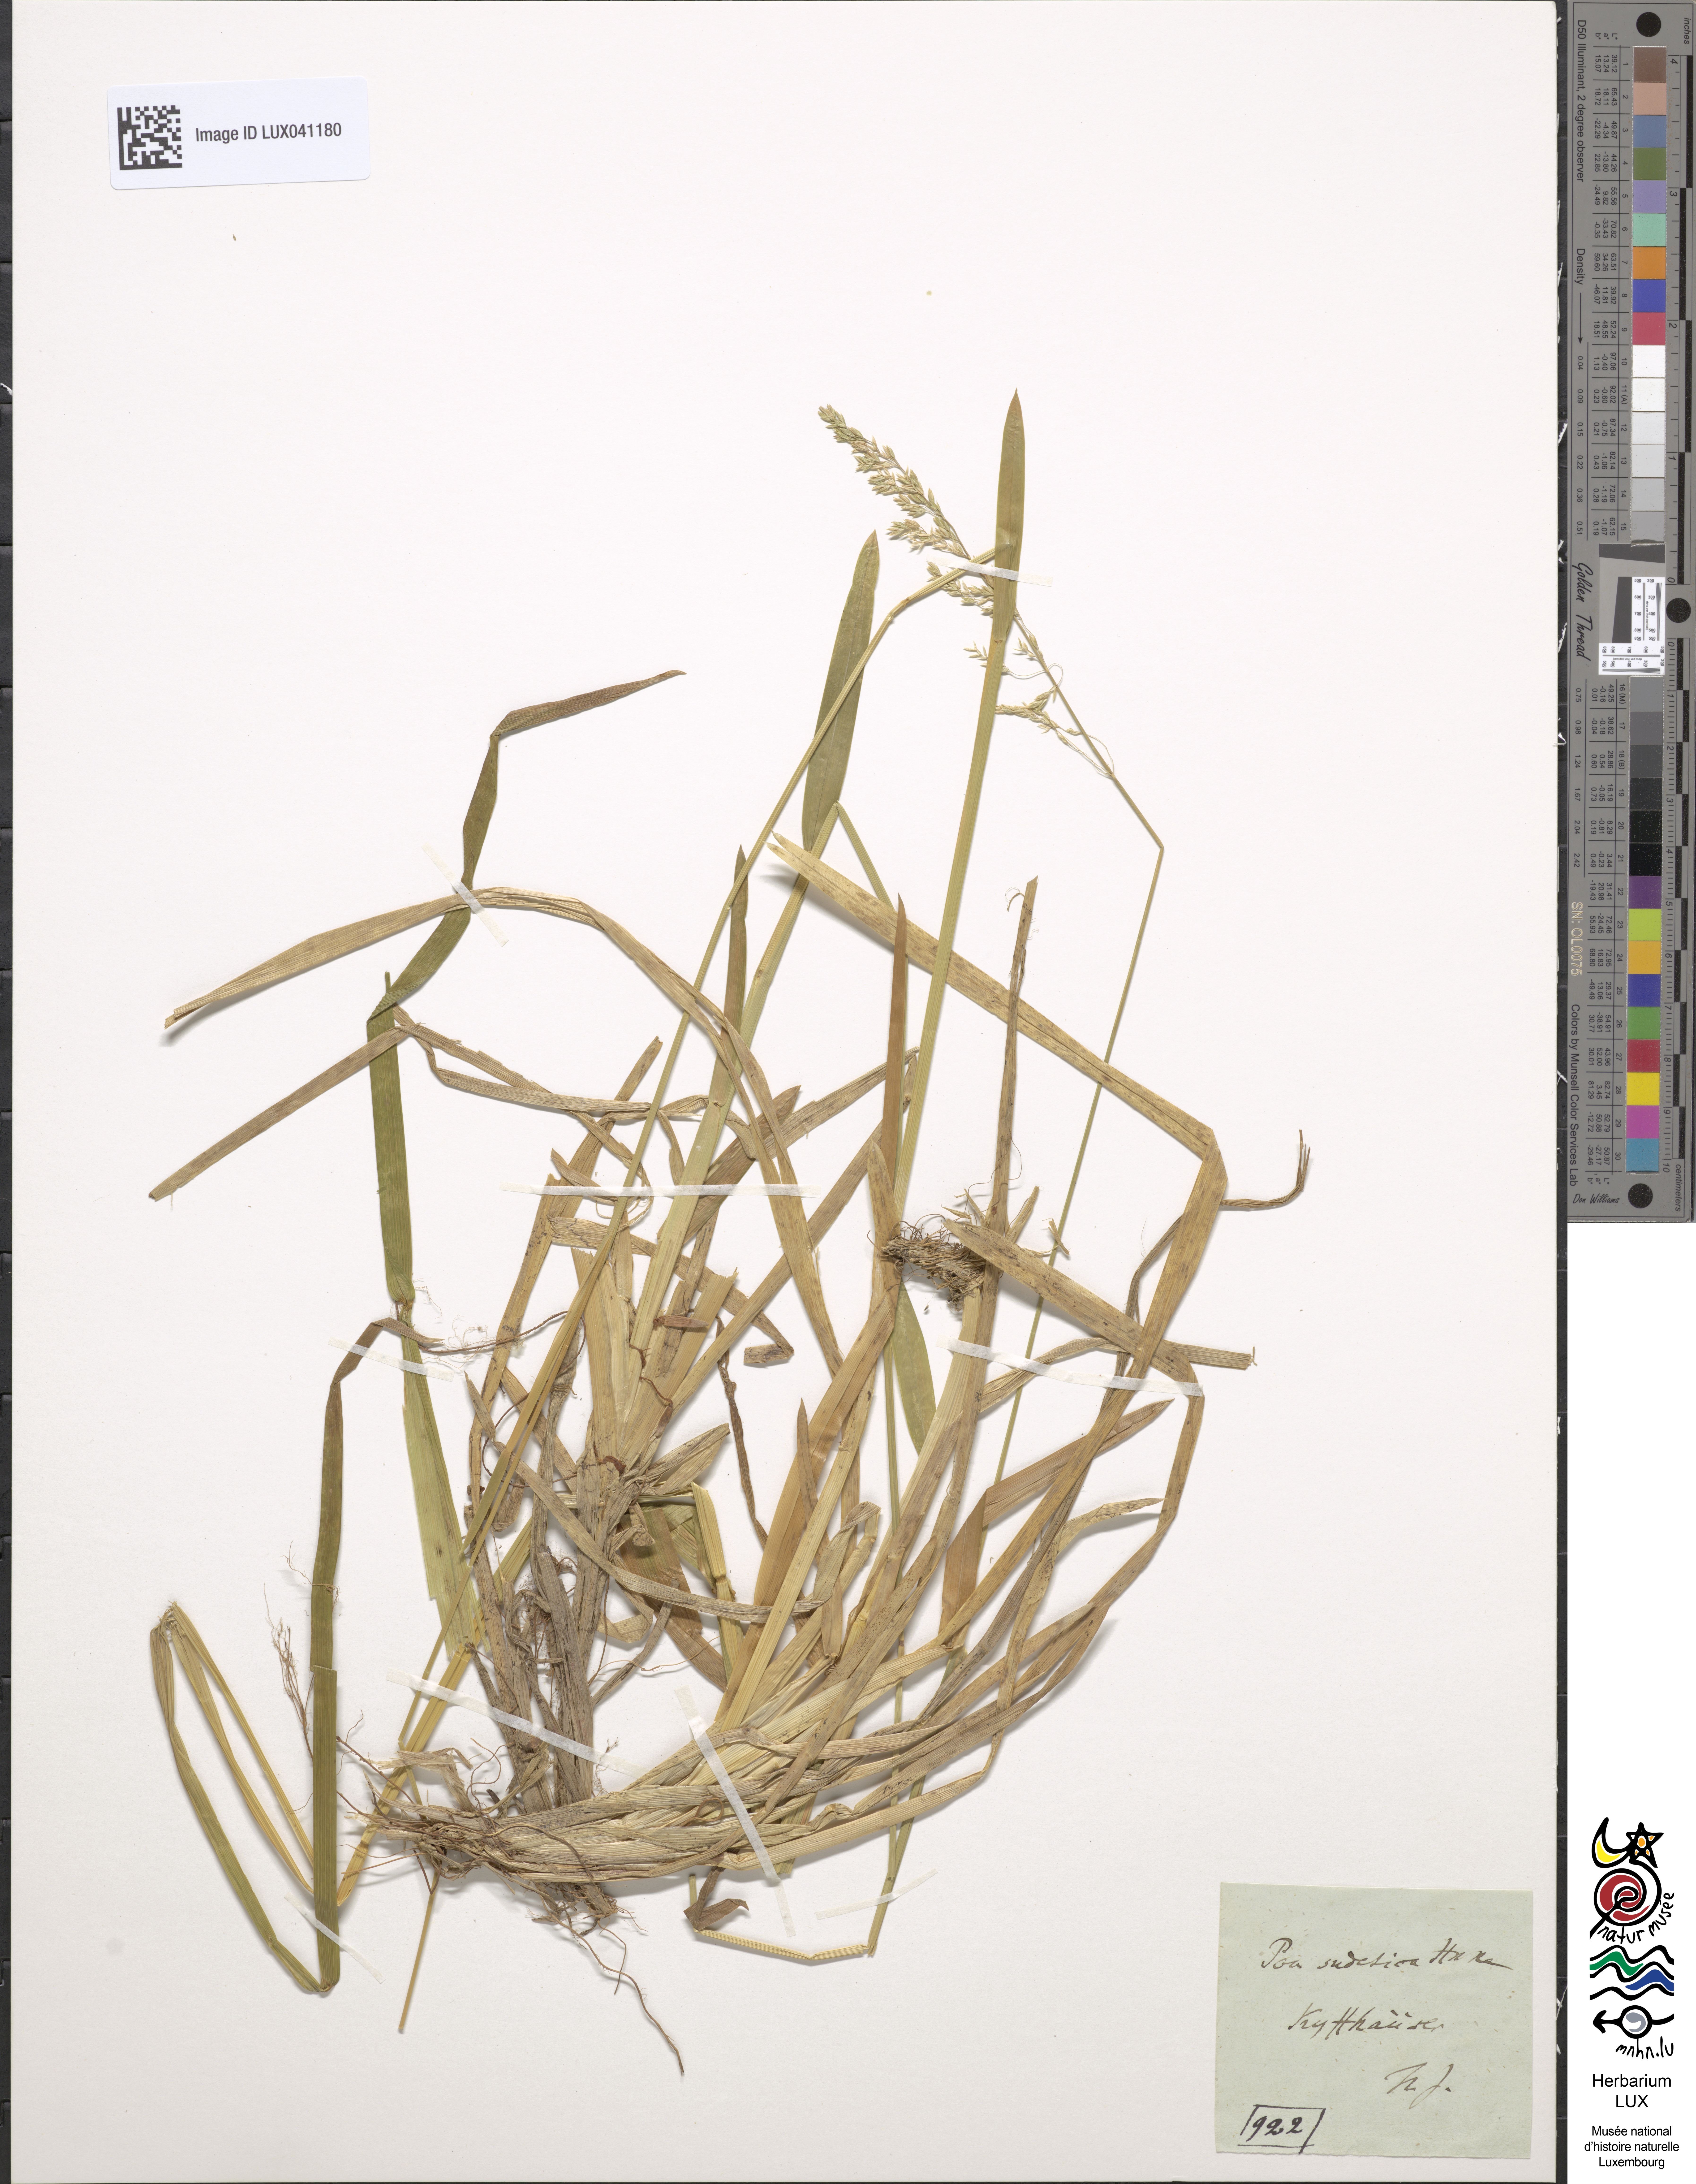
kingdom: Plantae
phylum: Tracheophyta
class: Liliopsida
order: Poales
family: Poaceae
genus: Poa
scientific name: Poa chaixii
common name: Broad-leaved meadow-grass
